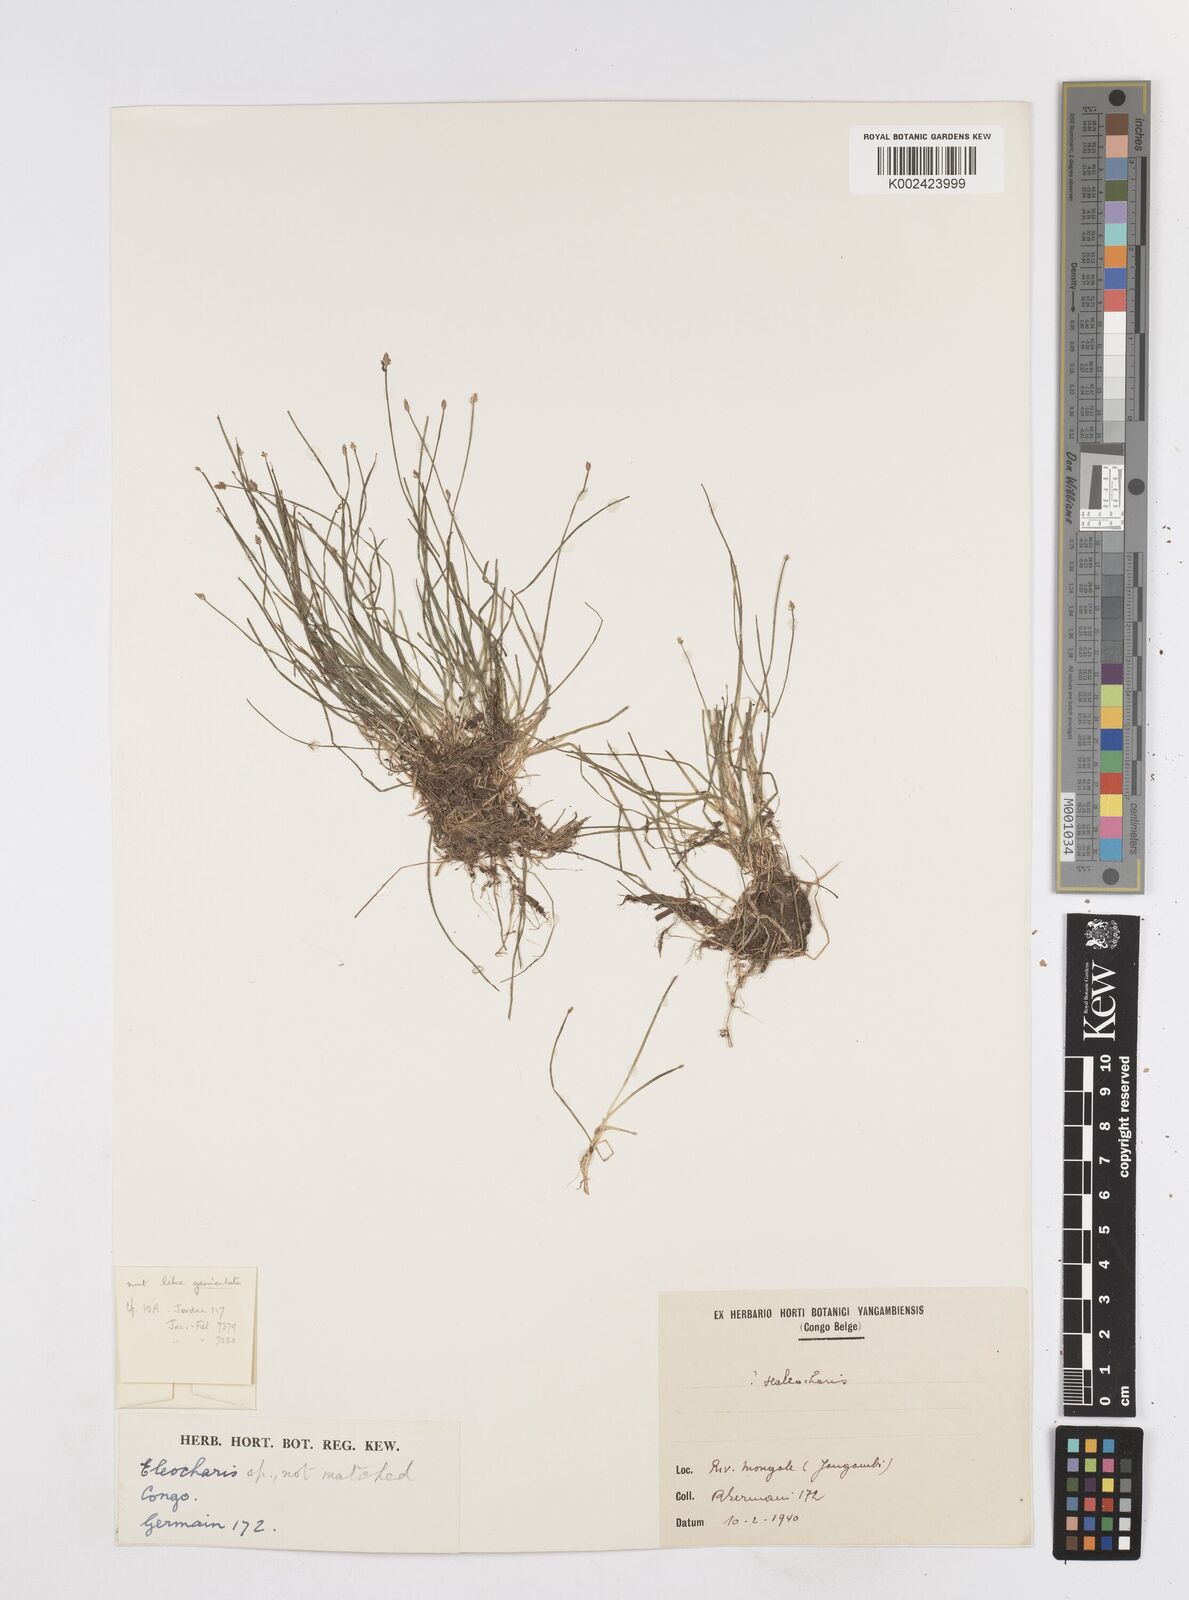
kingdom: Plantae
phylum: Tracheophyta
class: Liliopsida
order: Poales
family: Cyperaceae
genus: Eleocharis
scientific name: Eleocharis
